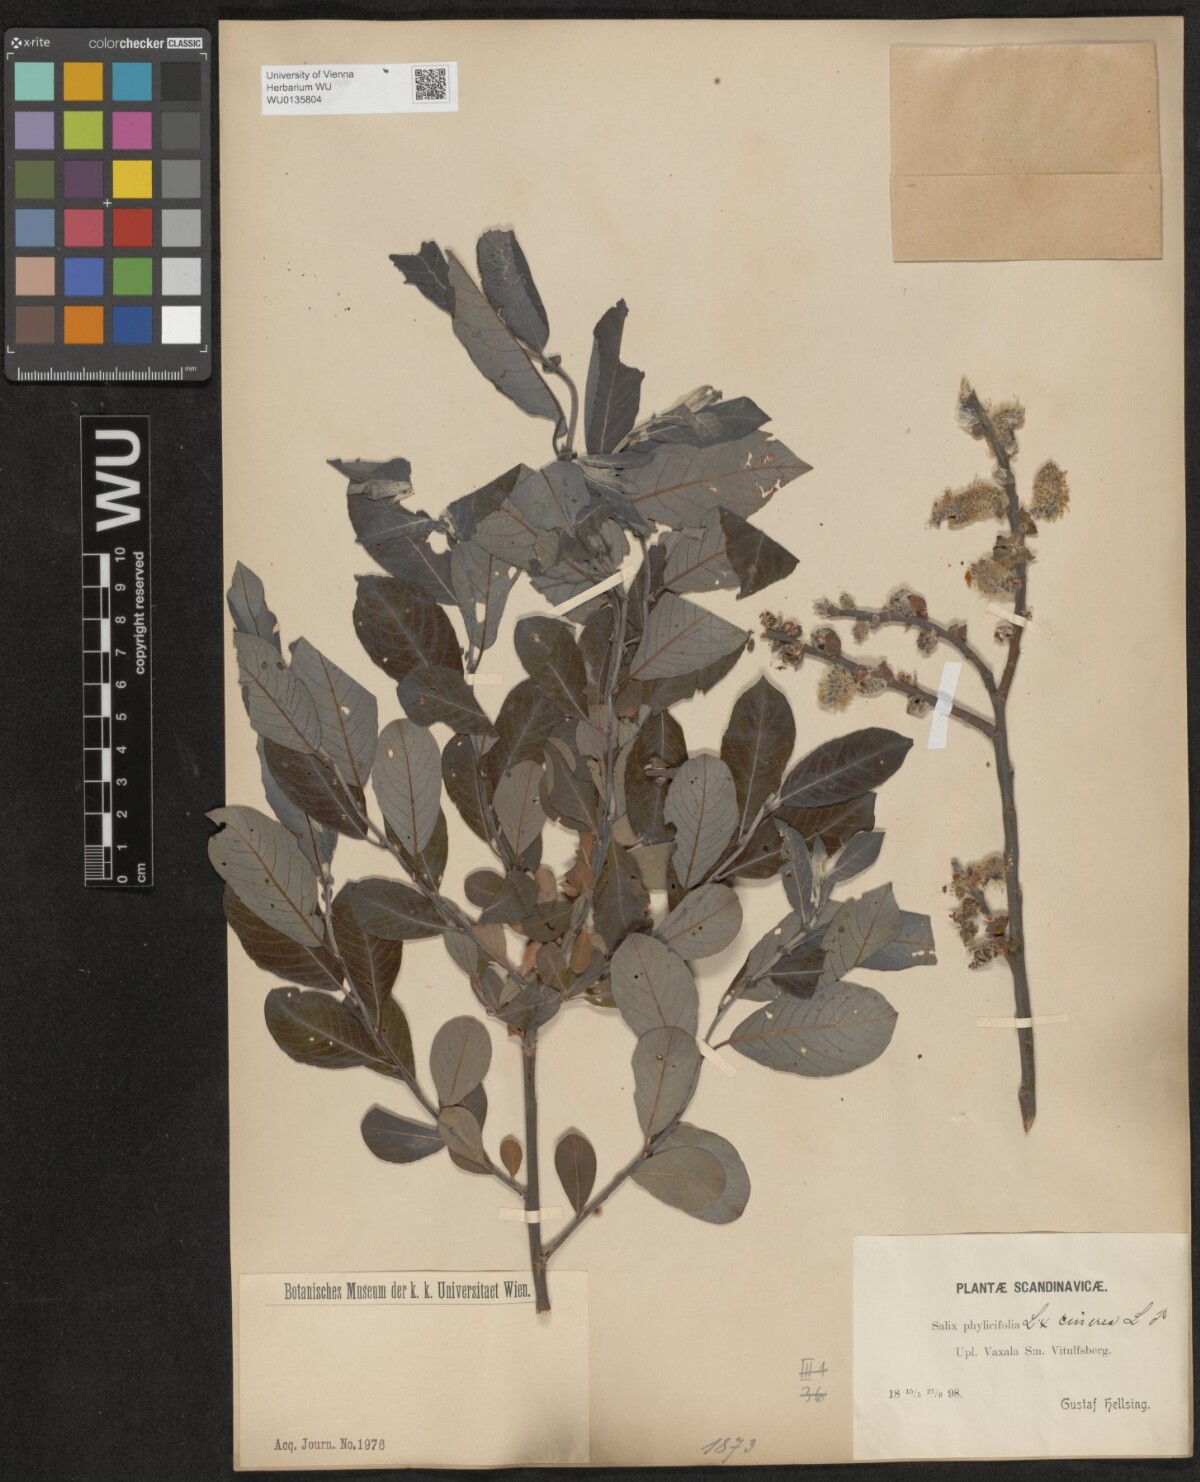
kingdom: Plantae
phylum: Tracheophyta
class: Magnoliopsida
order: Malpighiales
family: Salicaceae
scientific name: Salicaceae
